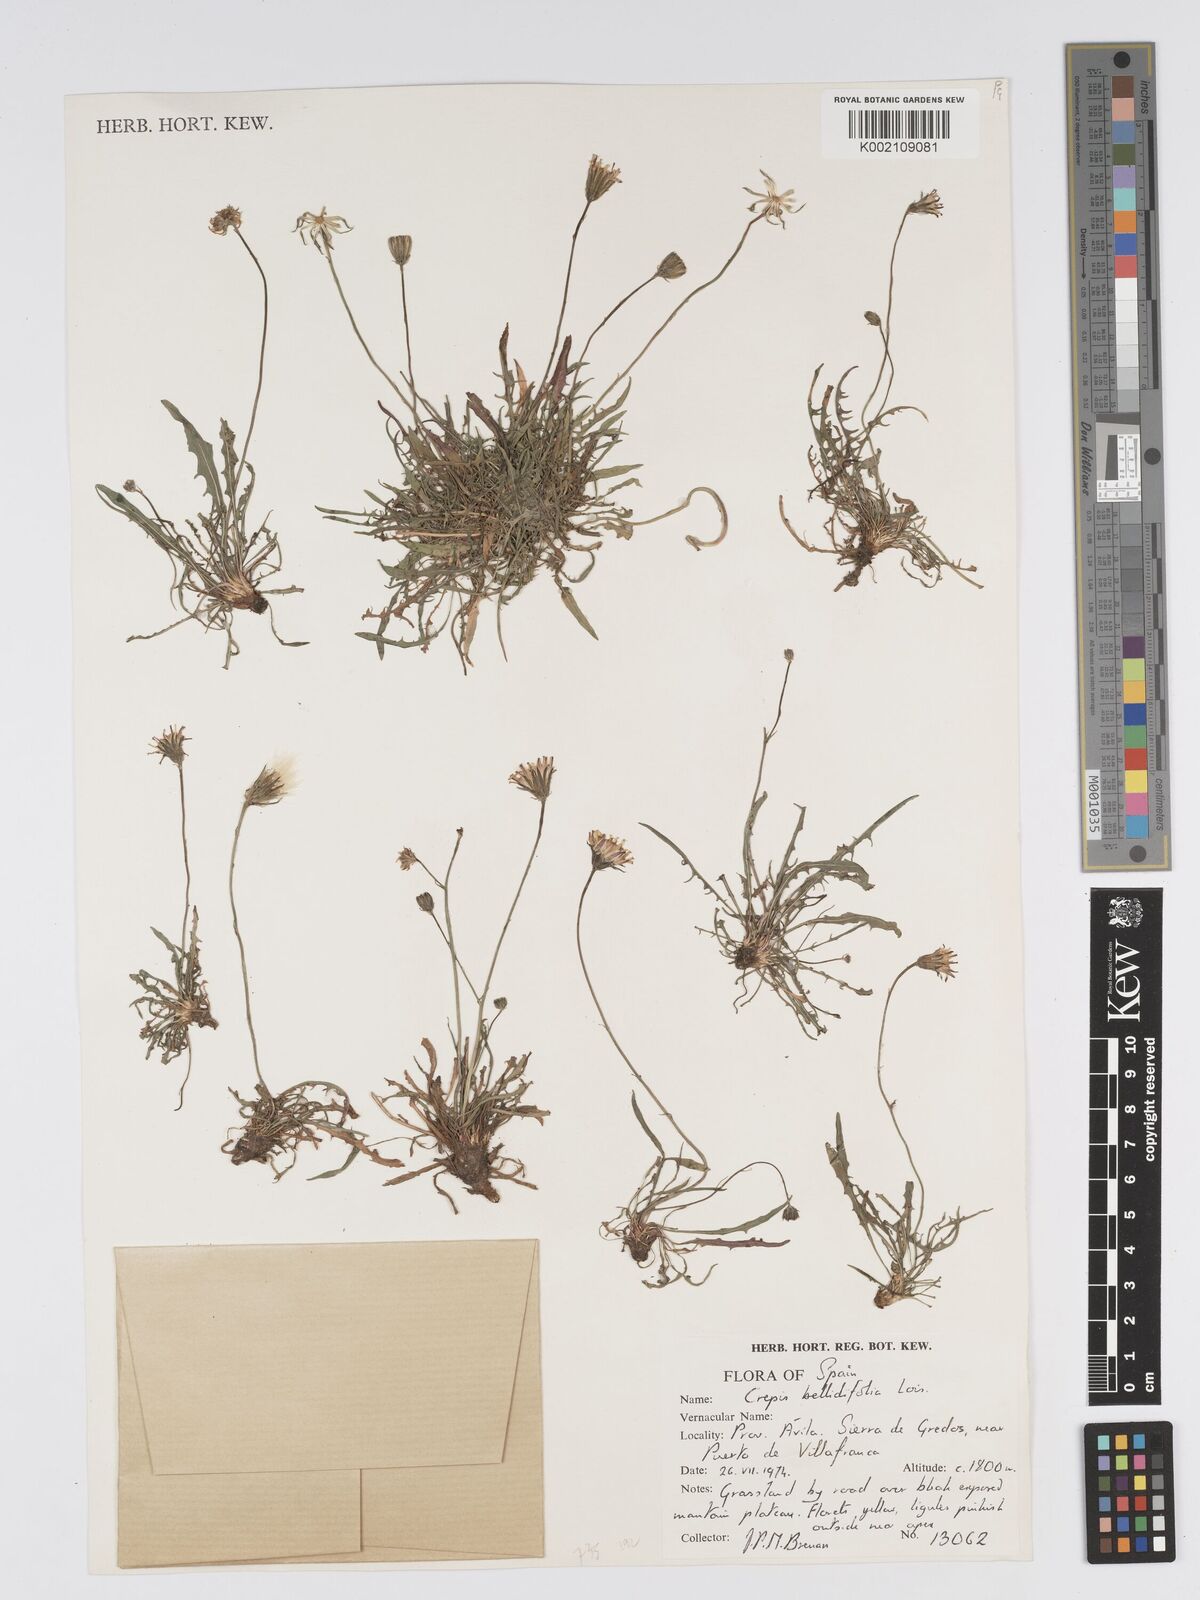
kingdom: Plantae
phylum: Tracheophyta
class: Magnoliopsida
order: Asterales
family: Asteraceae
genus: Crepis
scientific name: Crepis bellidifolia
